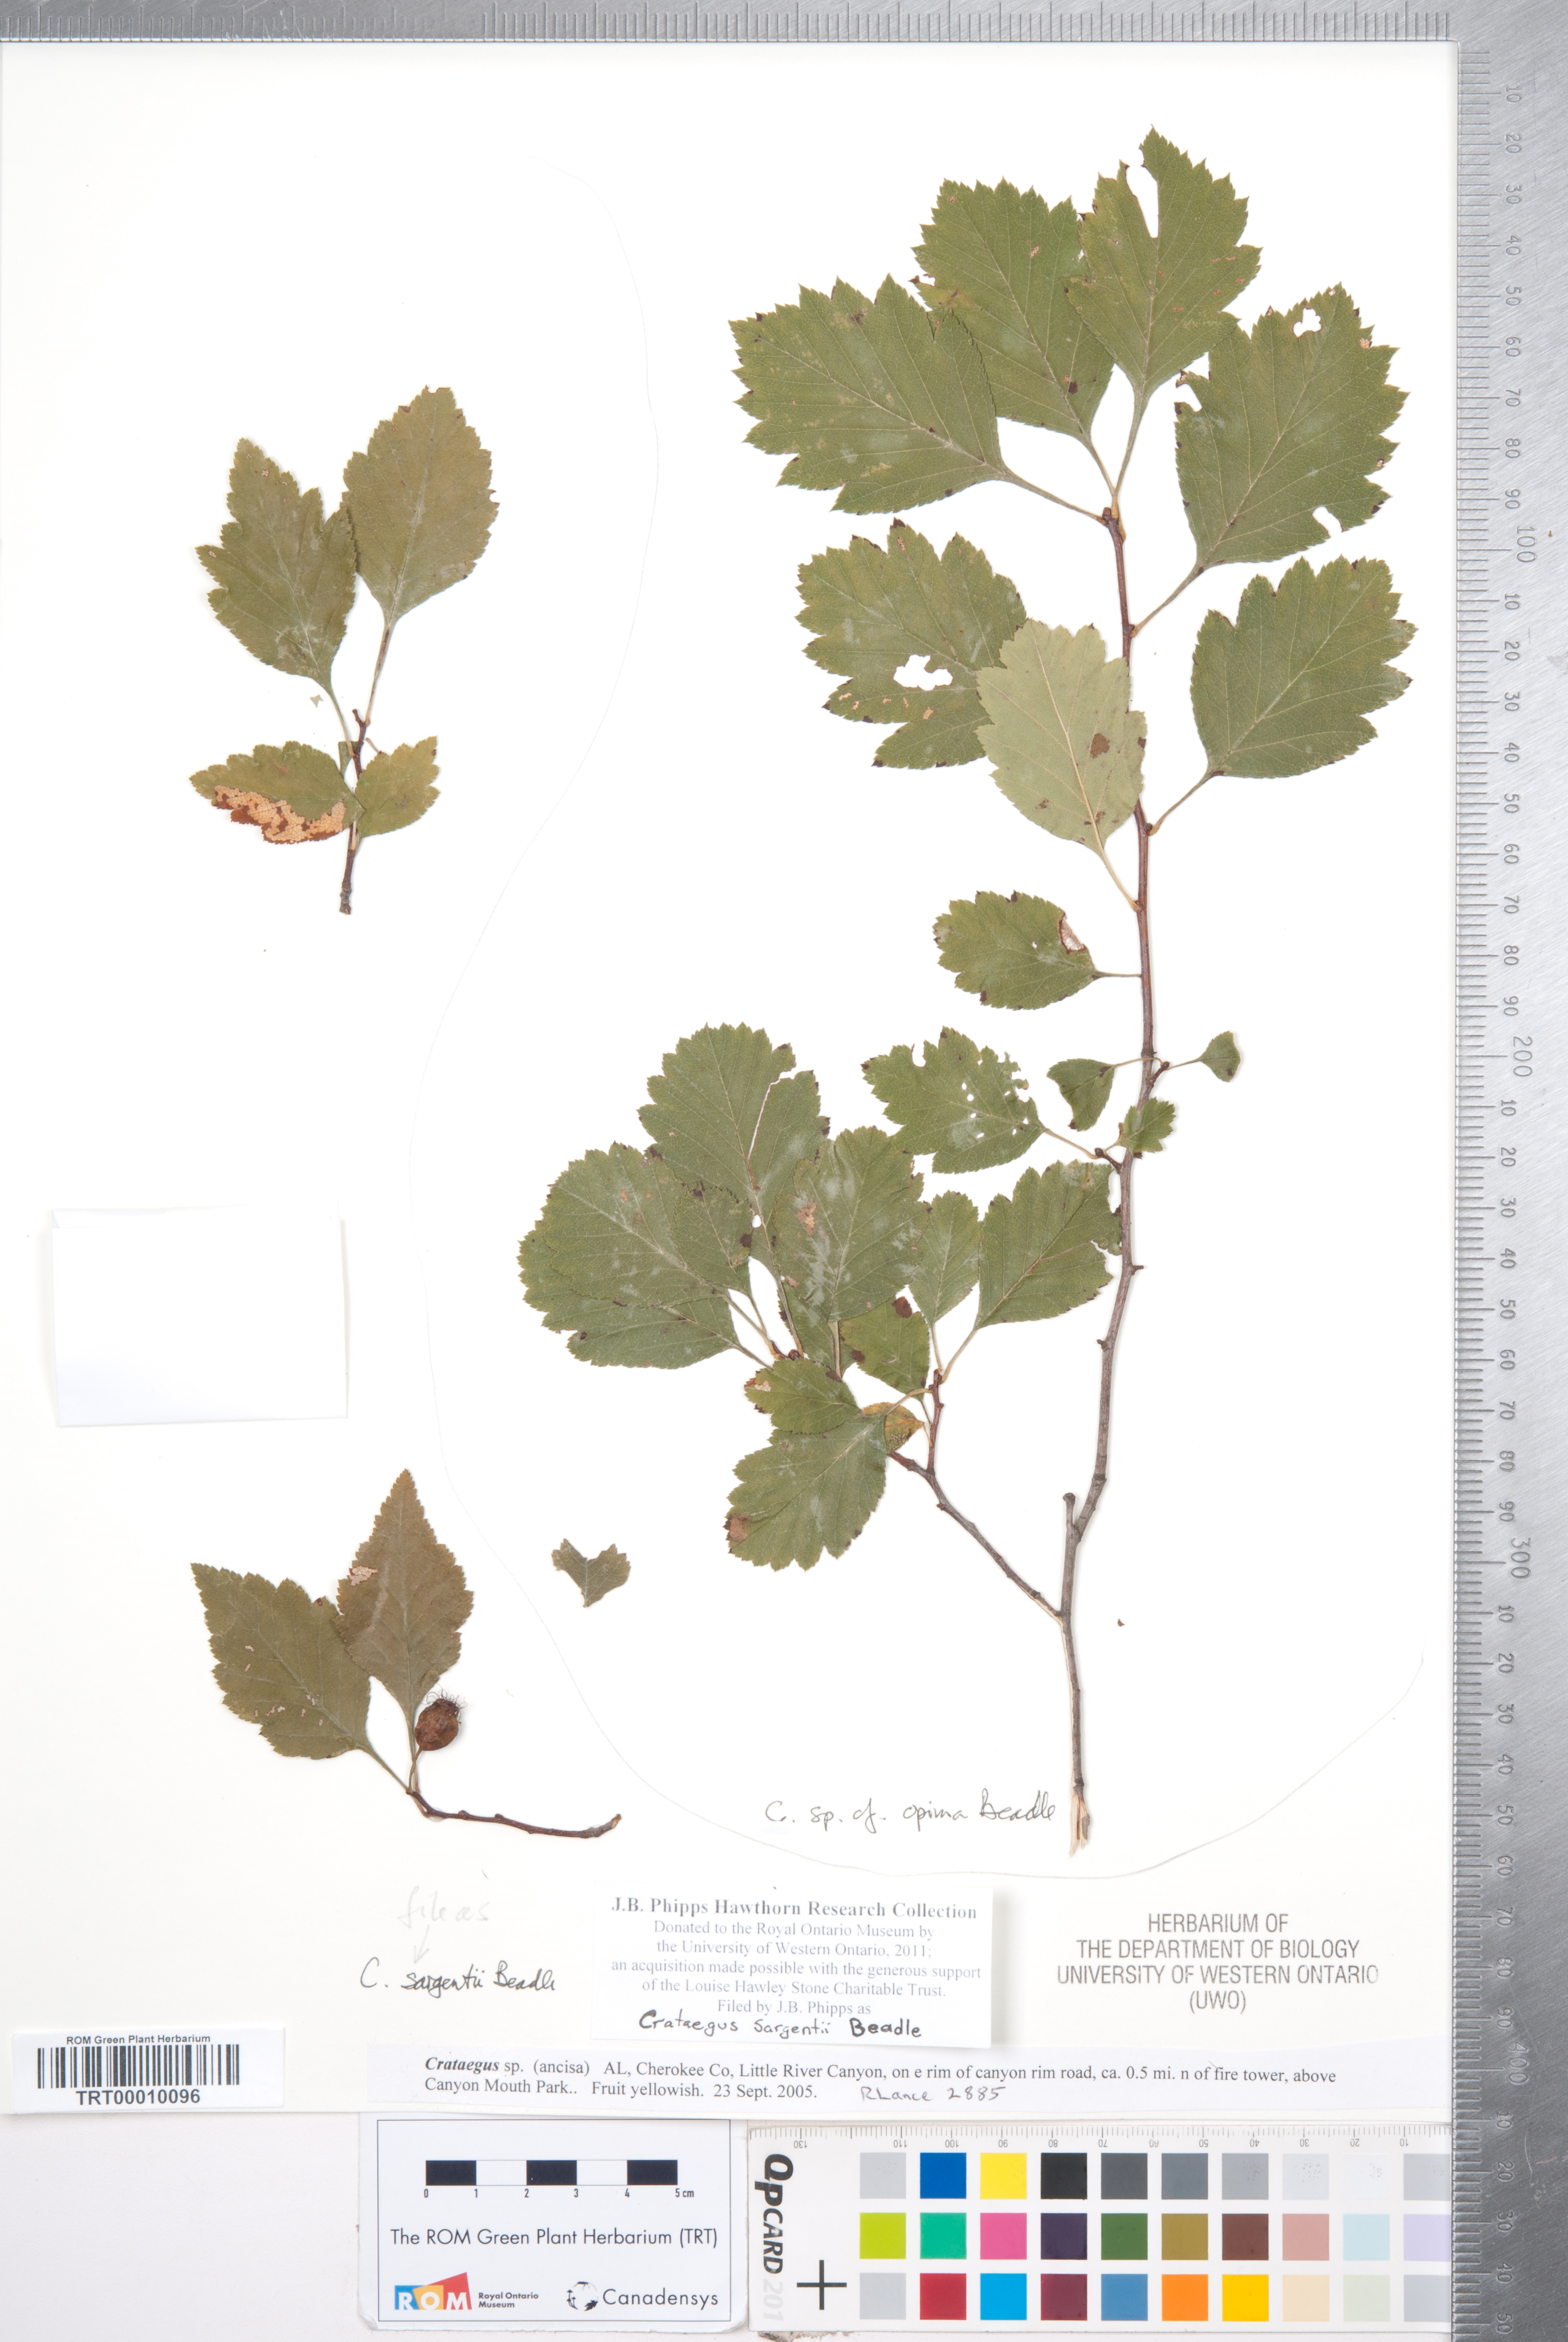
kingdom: Plantae
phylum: Tracheophyta
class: Magnoliopsida
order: Rosales
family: Rosaceae
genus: Crataegus
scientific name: Crataegus sargentii
